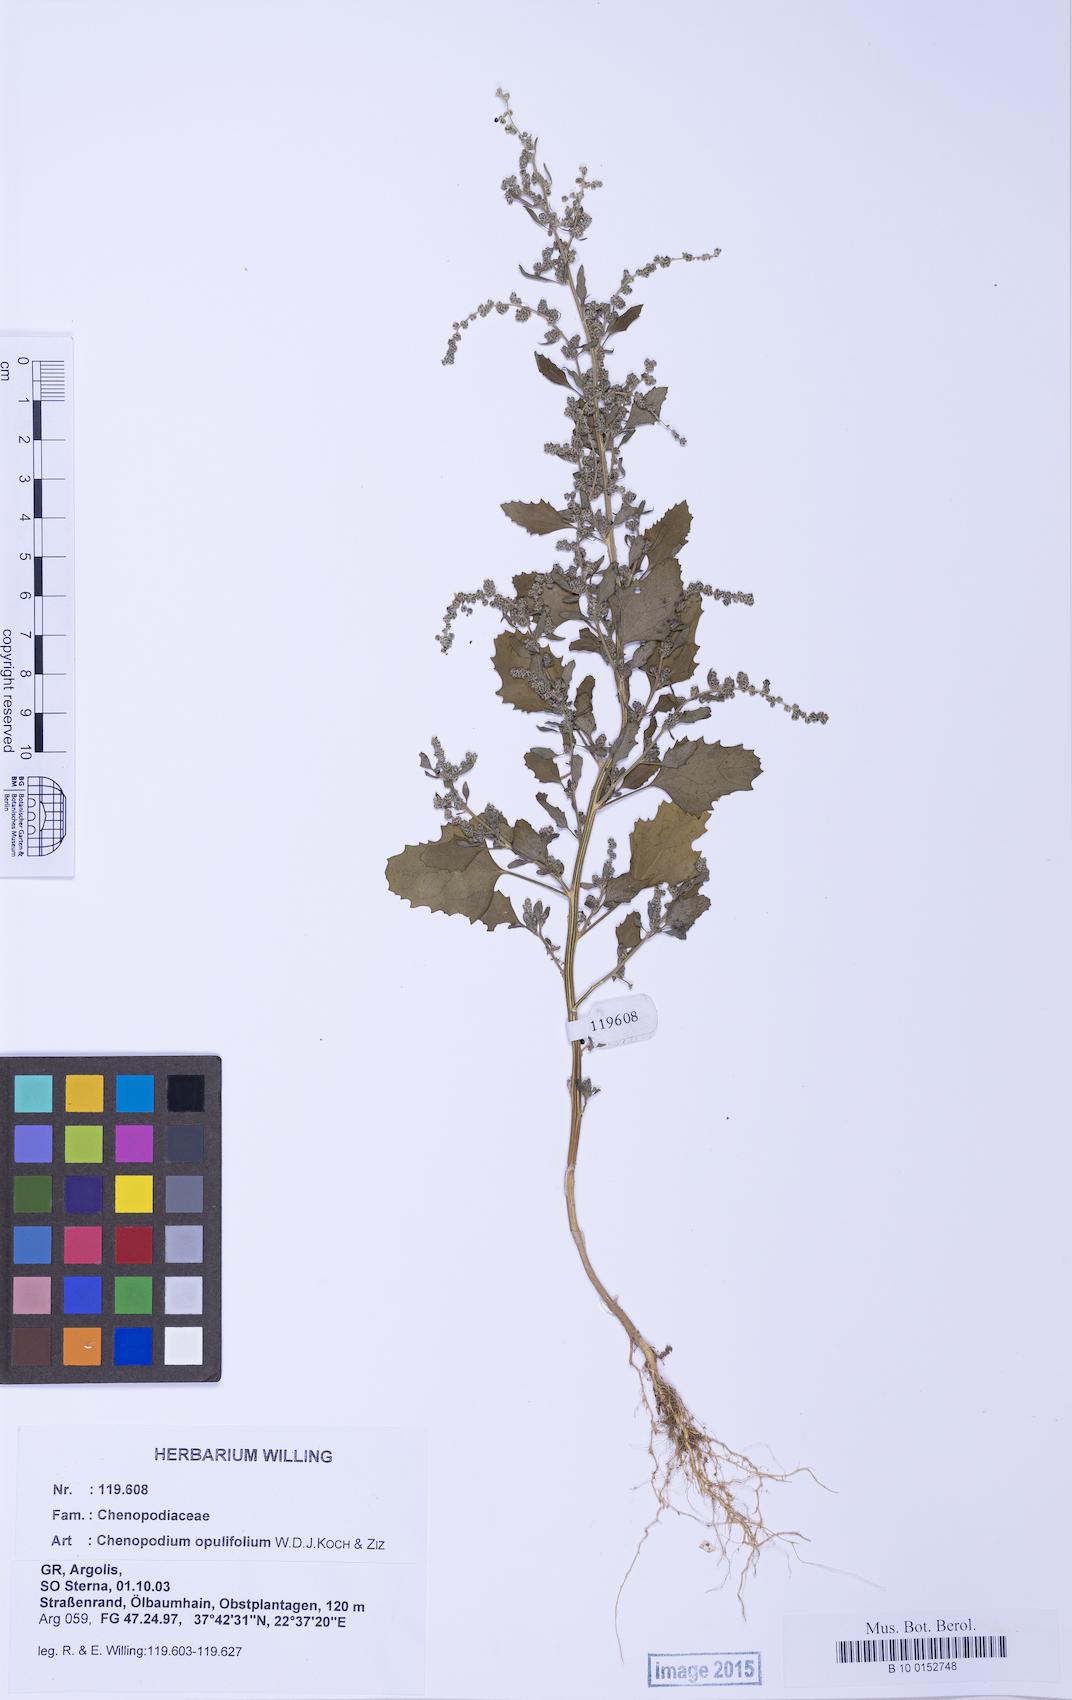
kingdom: Plantae
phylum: Tracheophyta
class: Magnoliopsida
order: Caryophyllales
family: Amaranthaceae
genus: Chenopodiastrum
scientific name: Chenopodiastrum murale
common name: Sowbane
